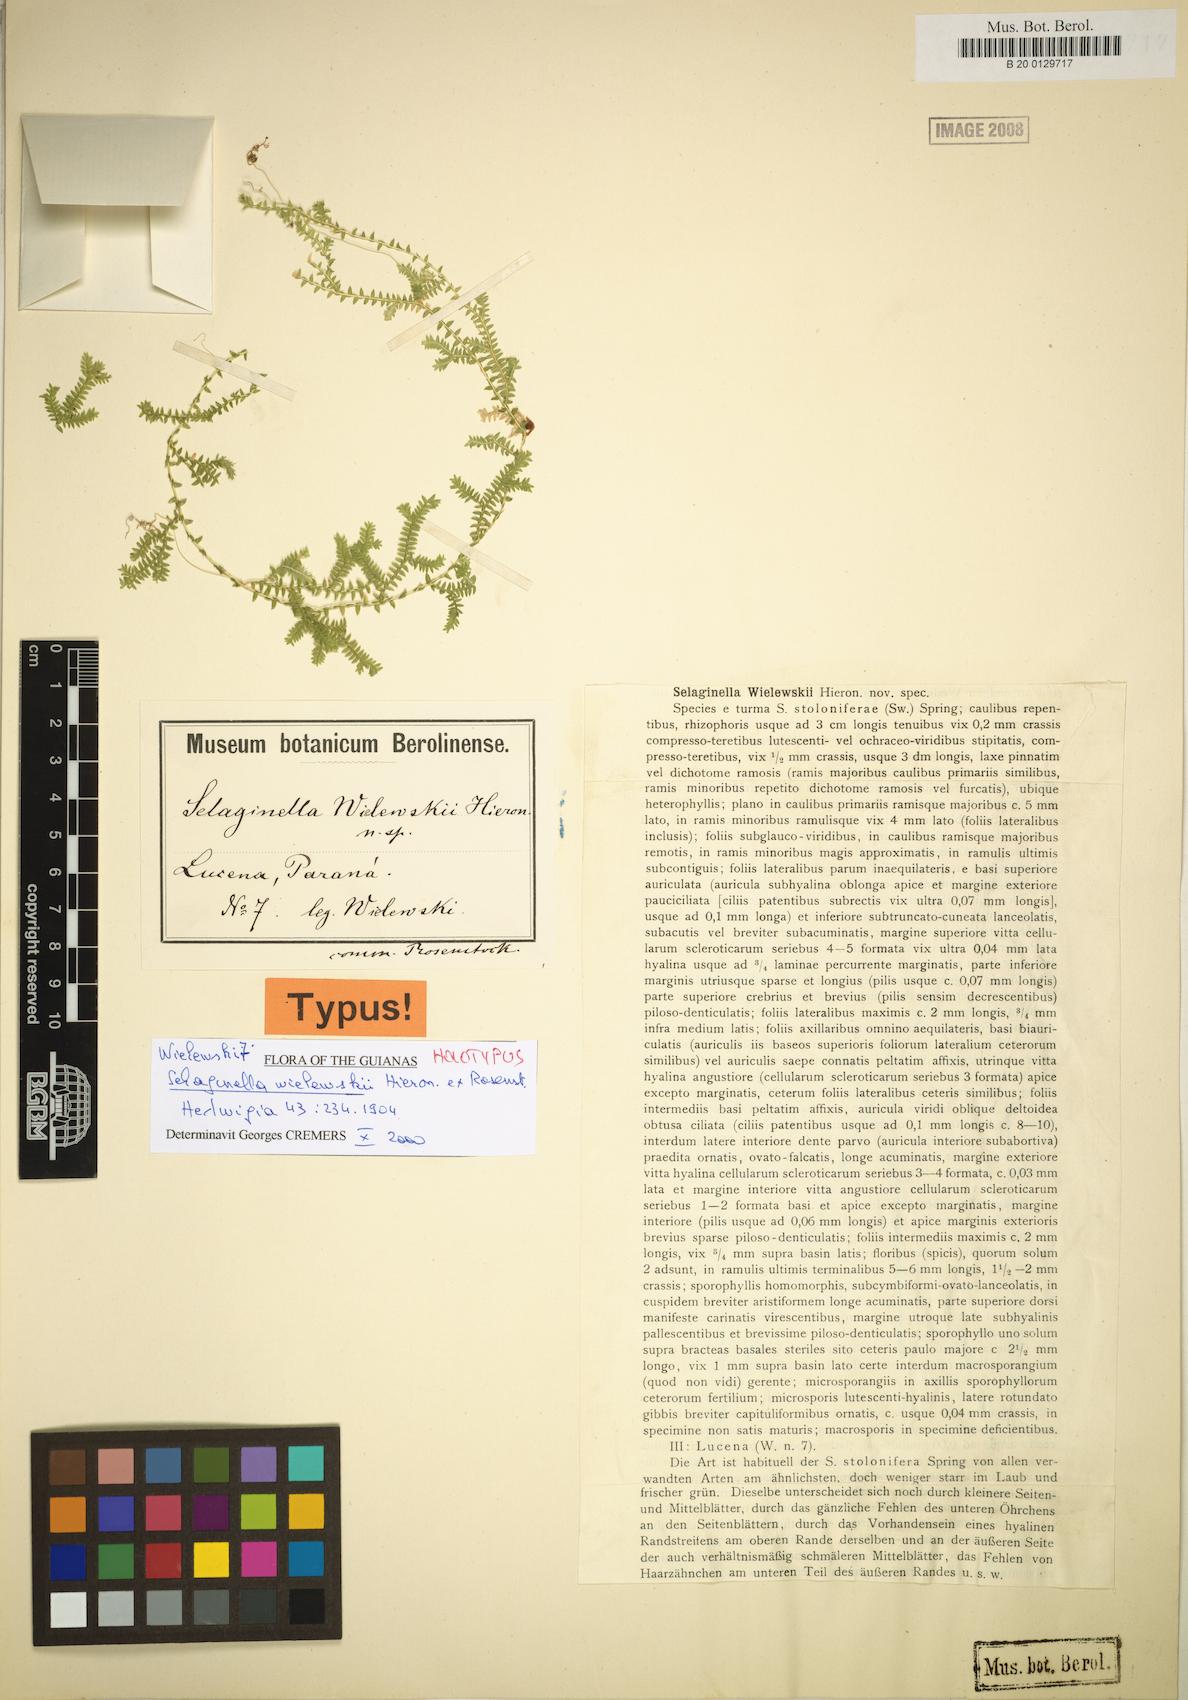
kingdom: Plantae
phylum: Tracheophyta
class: Lycopodiopsida
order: Selaginellales
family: Selaginellaceae
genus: Selaginella
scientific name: Selaginella marginata
